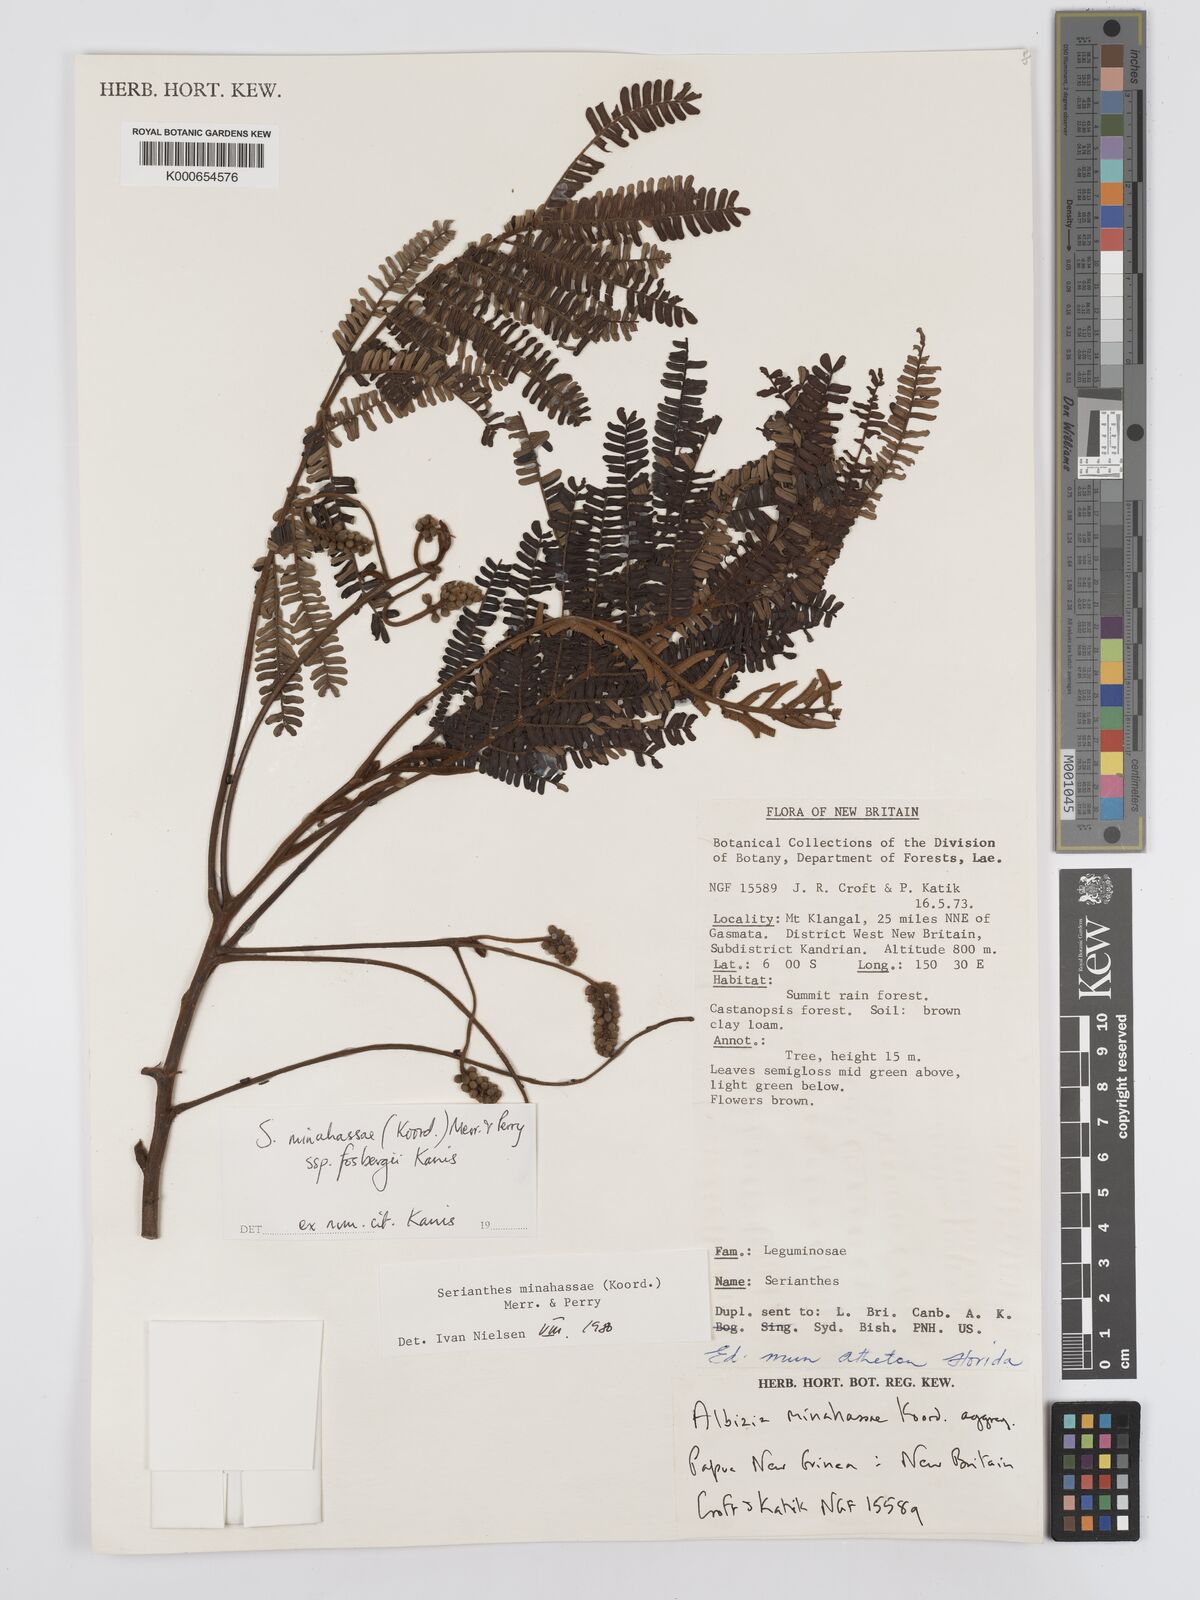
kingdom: Plantae
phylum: Tracheophyta
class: Magnoliopsida
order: Fabales
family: Fabaceae
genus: Serianthes
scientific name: Serianthes minahassae
